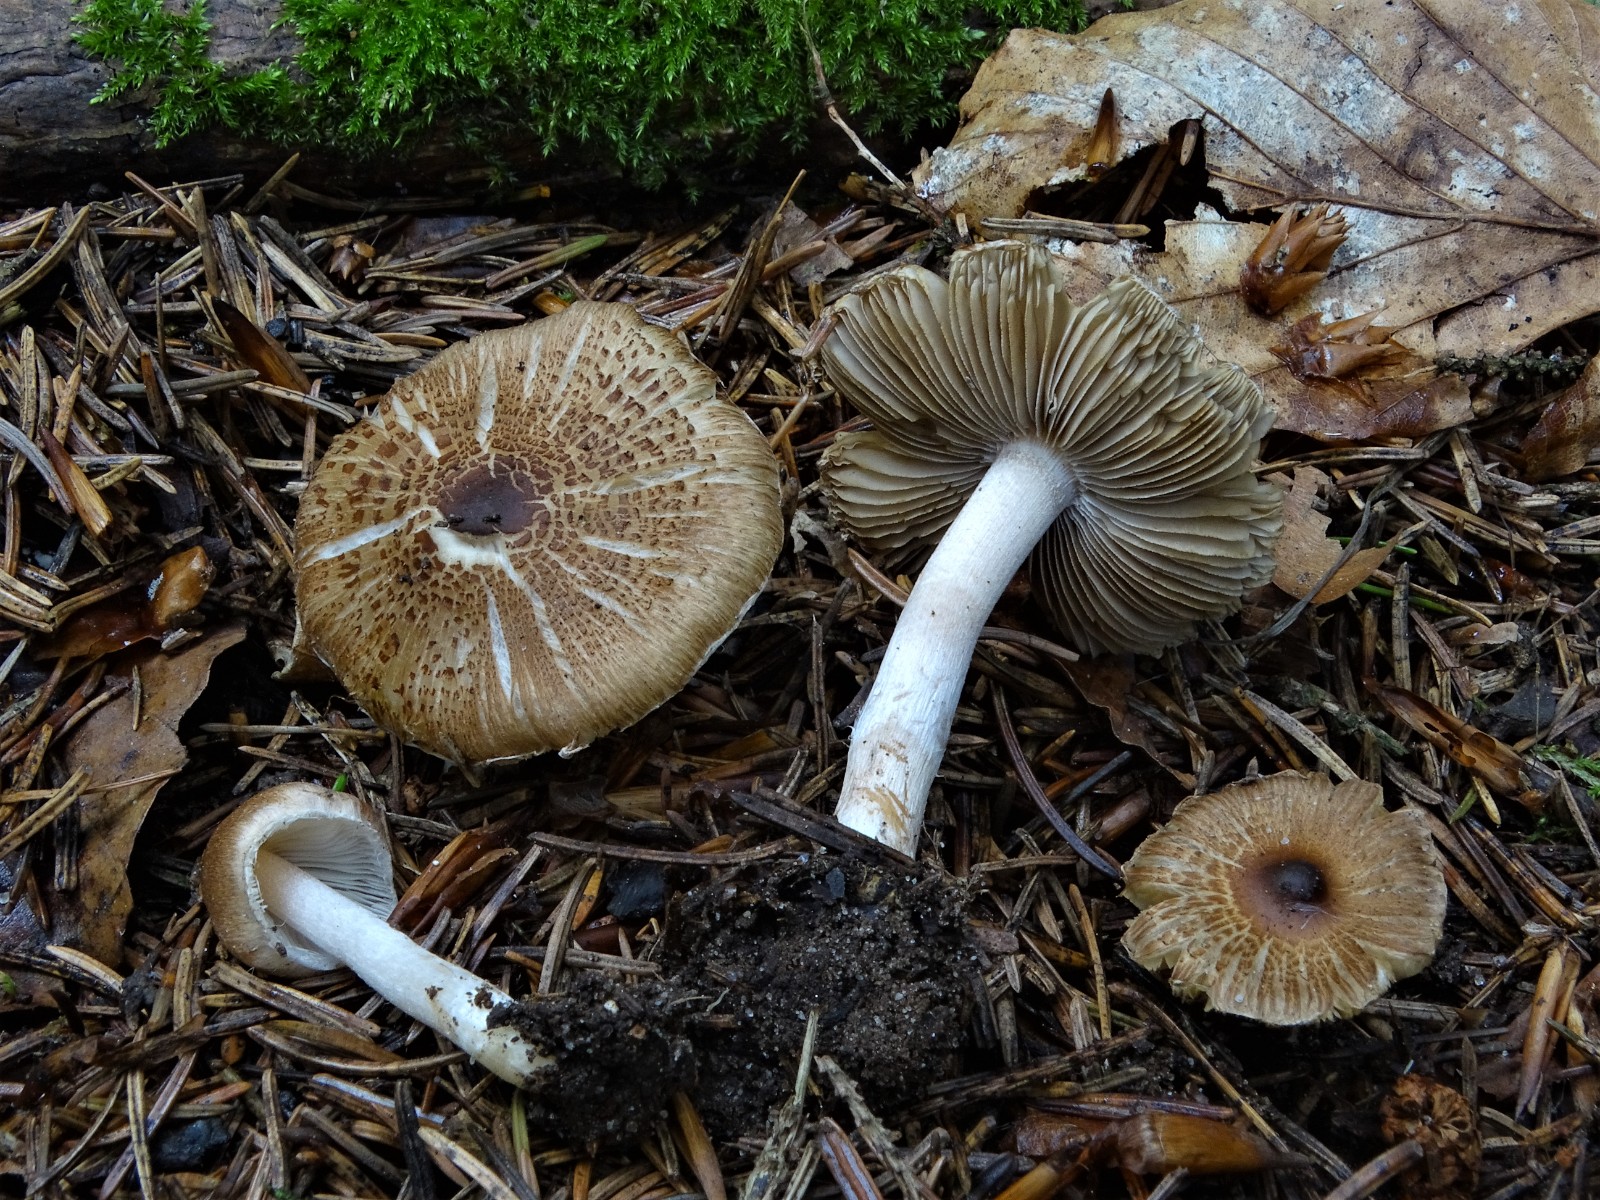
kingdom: Fungi
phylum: Basidiomycota
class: Agaricomycetes
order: Agaricales
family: Inocybaceae
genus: Inocybe
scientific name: Inocybe
